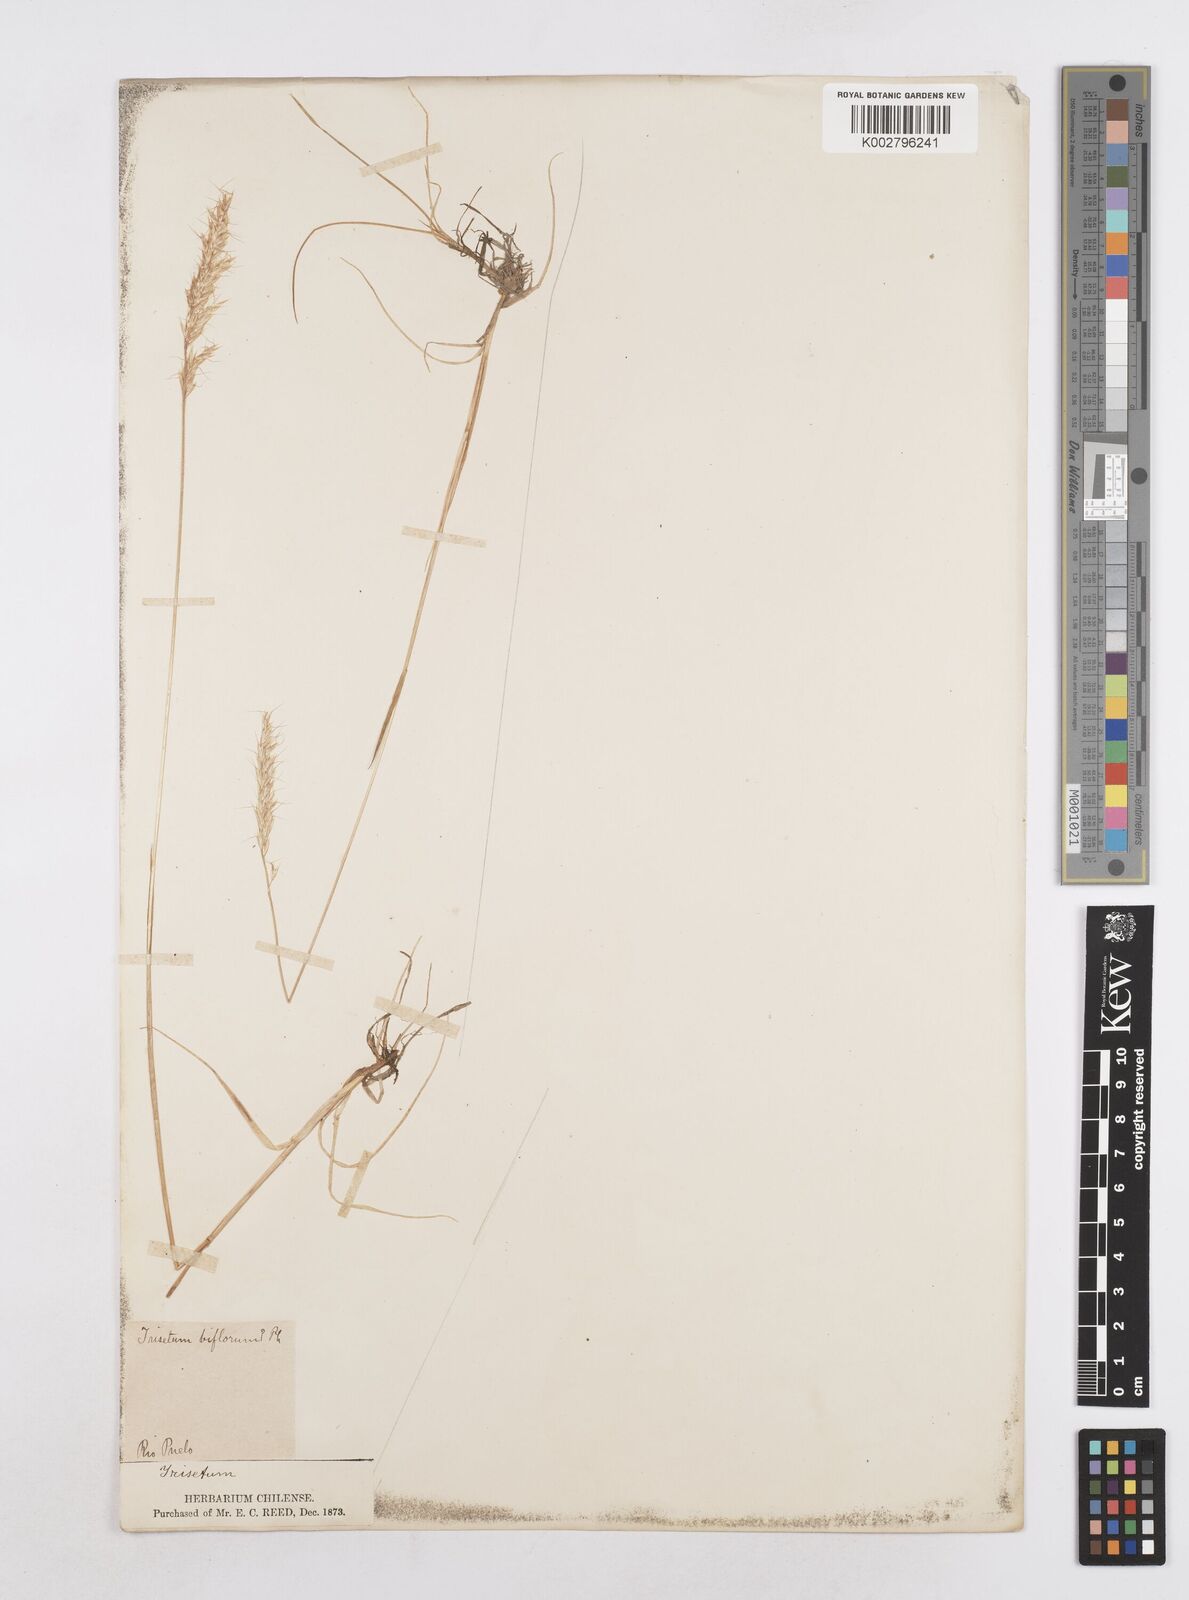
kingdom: Plantae
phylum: Tracheophyta
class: Liliopsida
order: Poales
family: Poaceae
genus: Helictotrichon
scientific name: Helictotrichon
